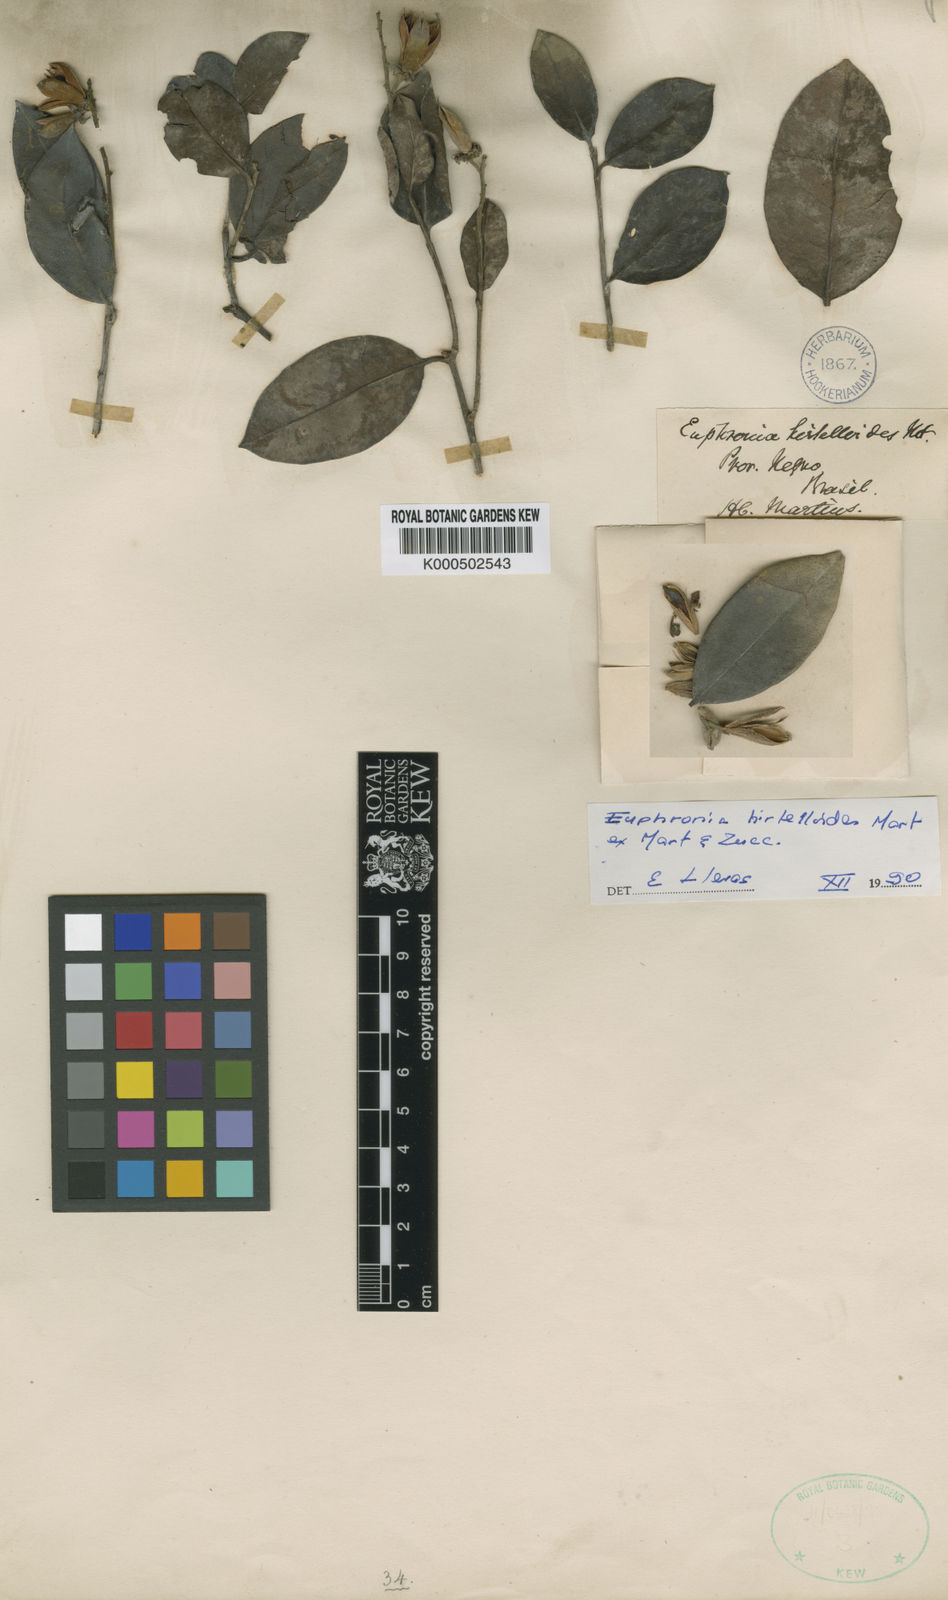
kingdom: Plantae
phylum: Tracheophyta
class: Magnoliopsida
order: Malpighiales
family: Euphroniaceae
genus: Euphronia
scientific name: Euphronia hirtelloides
